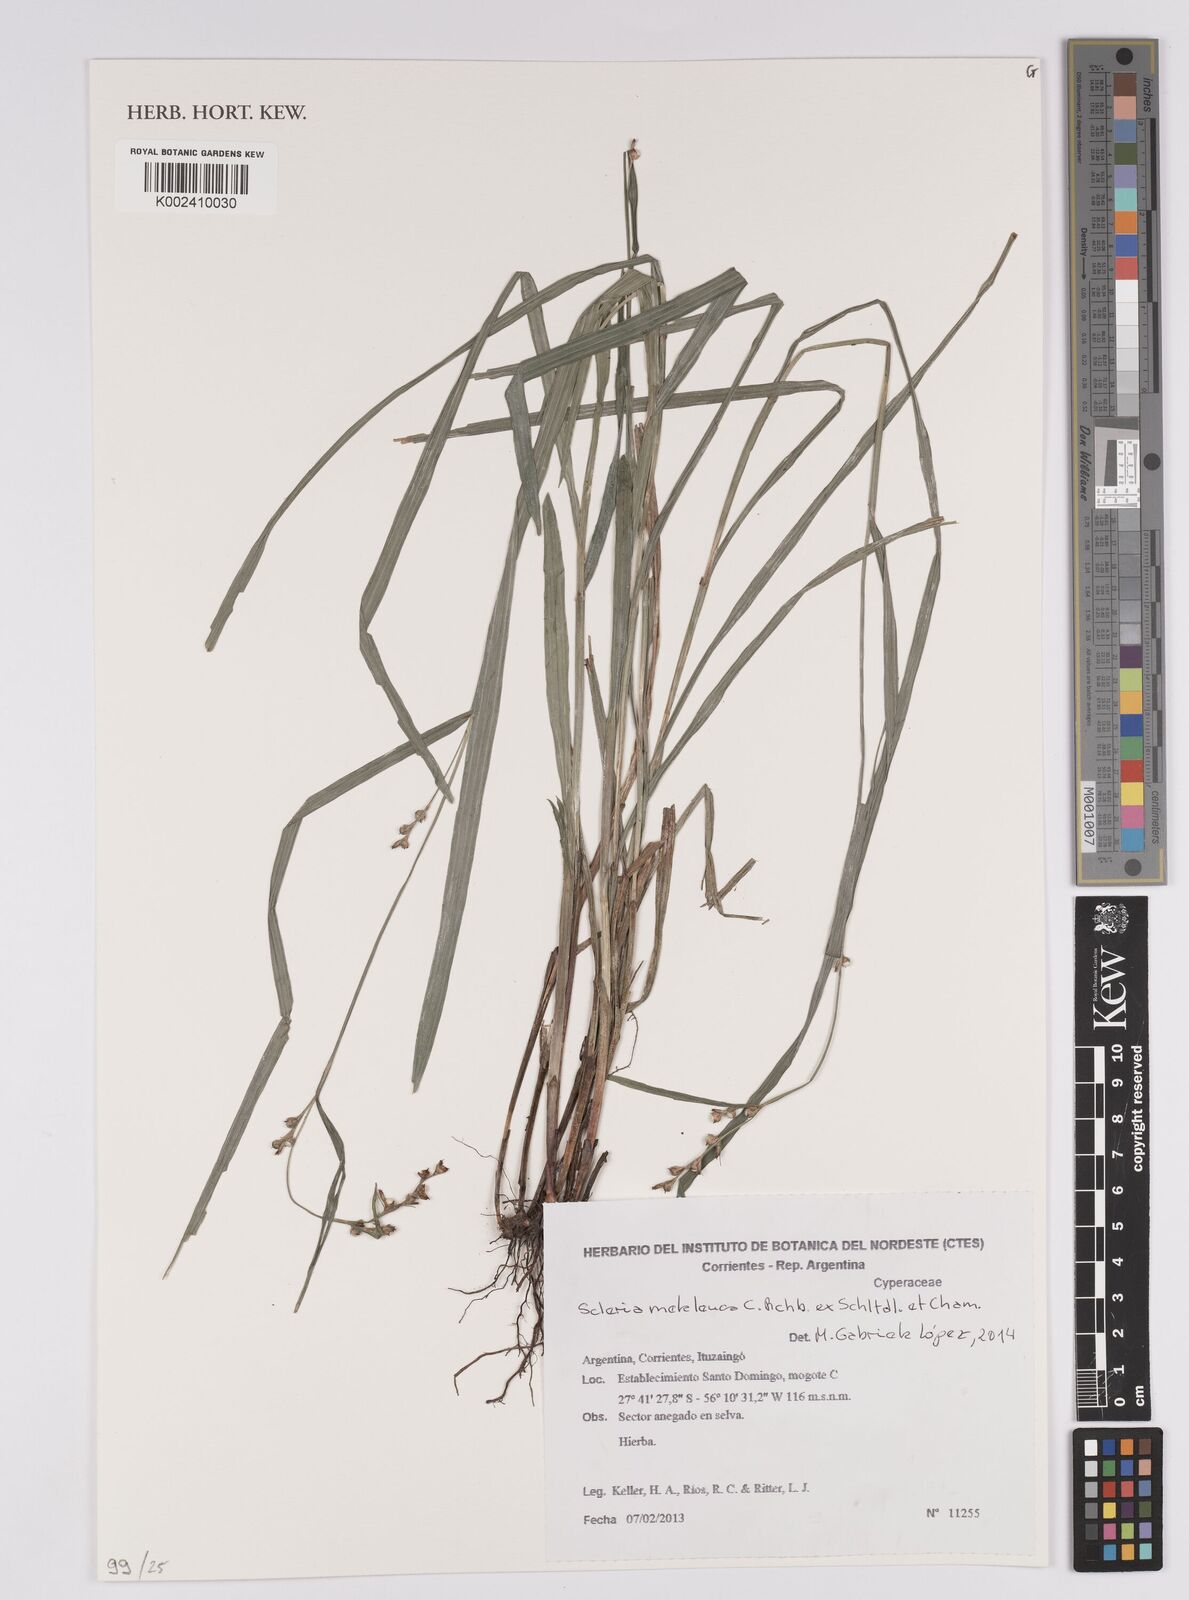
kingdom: Plantae
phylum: Tracheophyta
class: Liliopsida
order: Poales
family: Cyperaceae
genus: Scleria
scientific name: Scleria gaertneri
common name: Cortadera blanca
